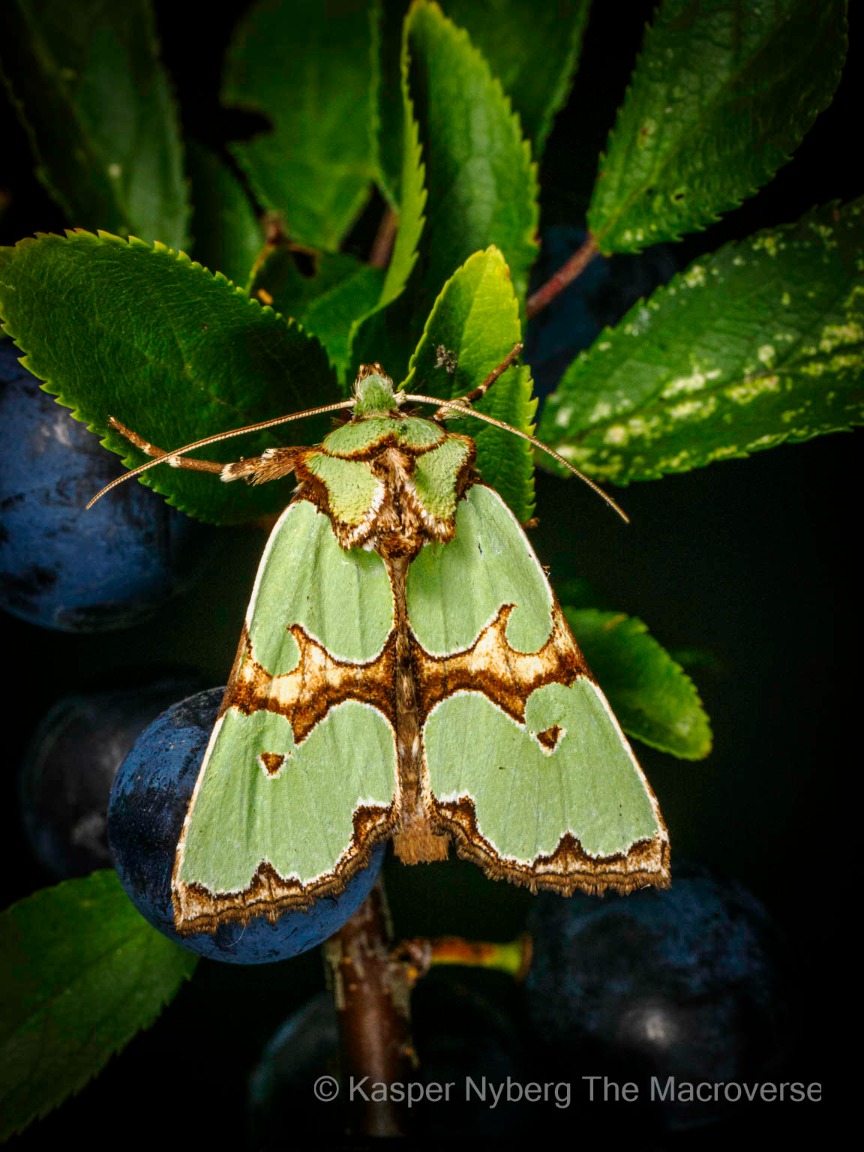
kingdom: Animalia
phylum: Arthropoda
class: Insecta
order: Lepidoptera
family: Noctuidae
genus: Staurophora
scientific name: Staurophora celsia
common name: Grøn pragtugle
